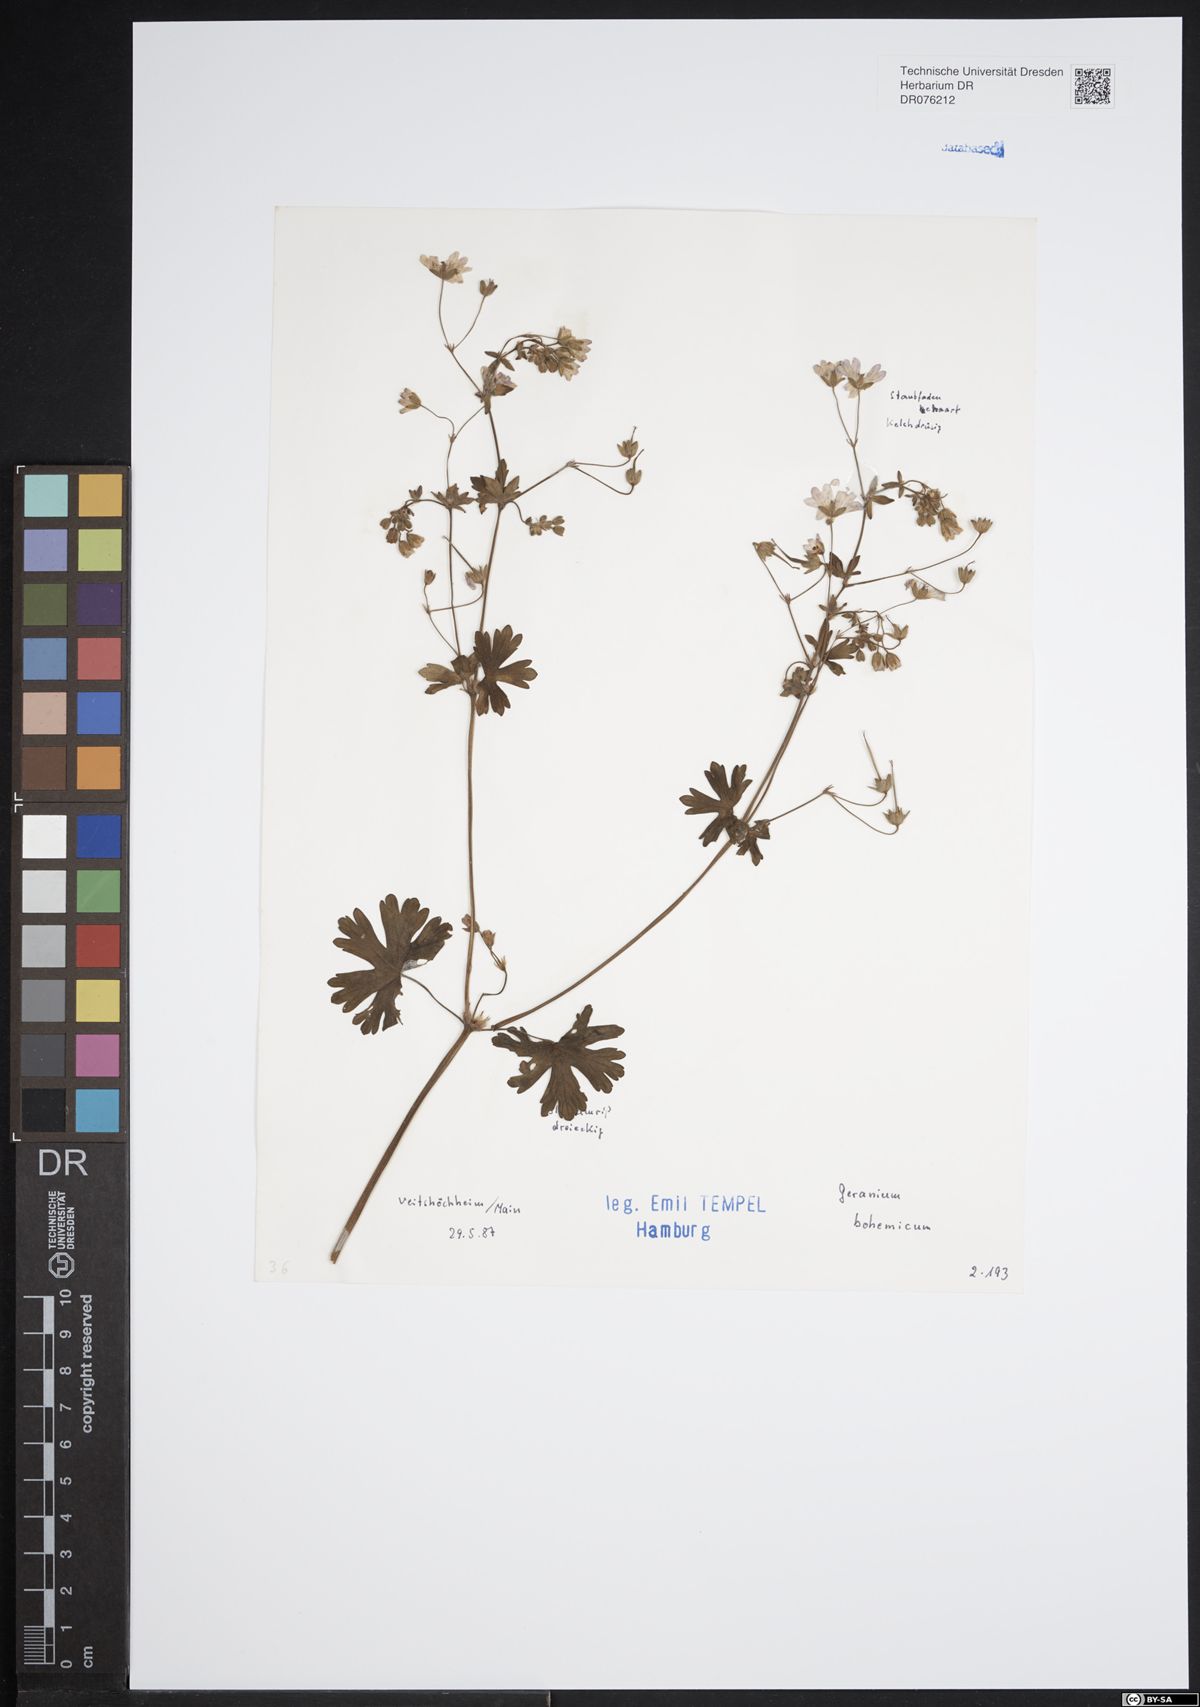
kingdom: Plantae
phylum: Tracheophyta
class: Magnoliopsida
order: Geraniales
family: Geraniaceae
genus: Geranium
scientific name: Geranium bohemicum
